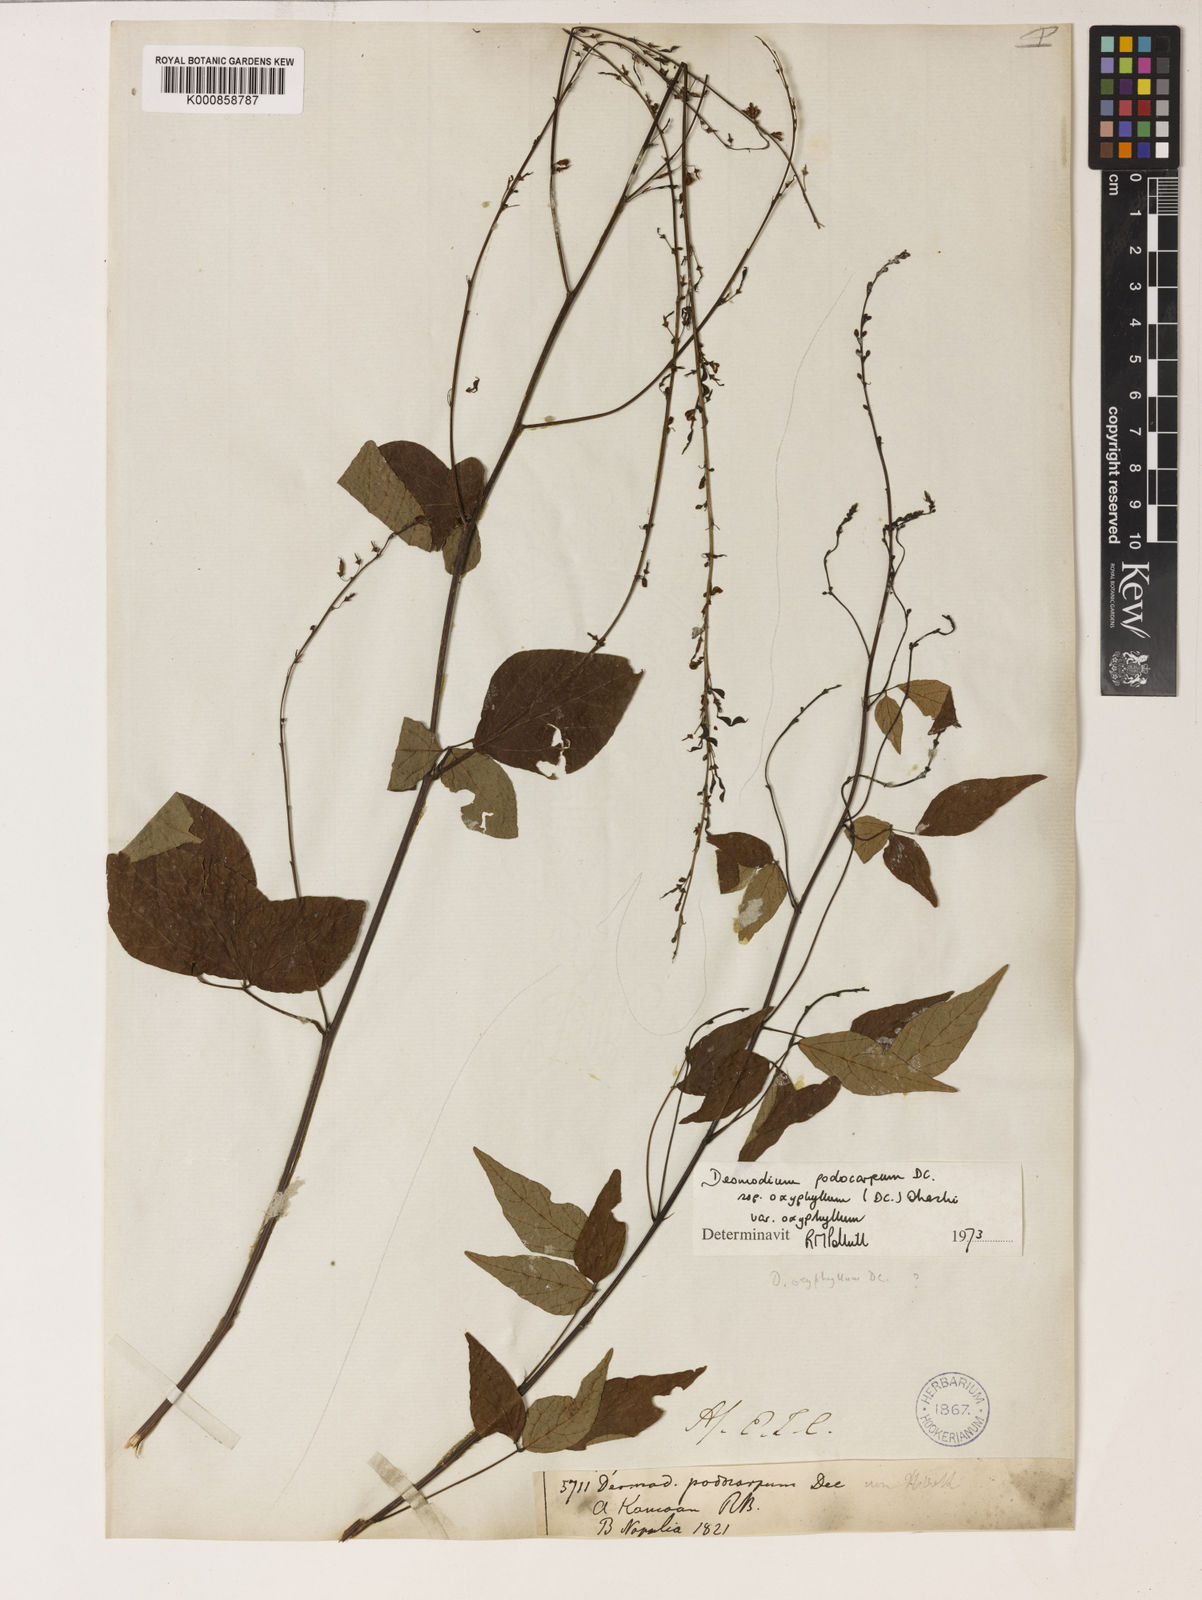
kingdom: Plantae
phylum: Tracheophyta
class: Magnoliopsida
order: Fabales
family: Fabaceae
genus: Hylodesmum
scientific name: Hylodesmum podocarpum
